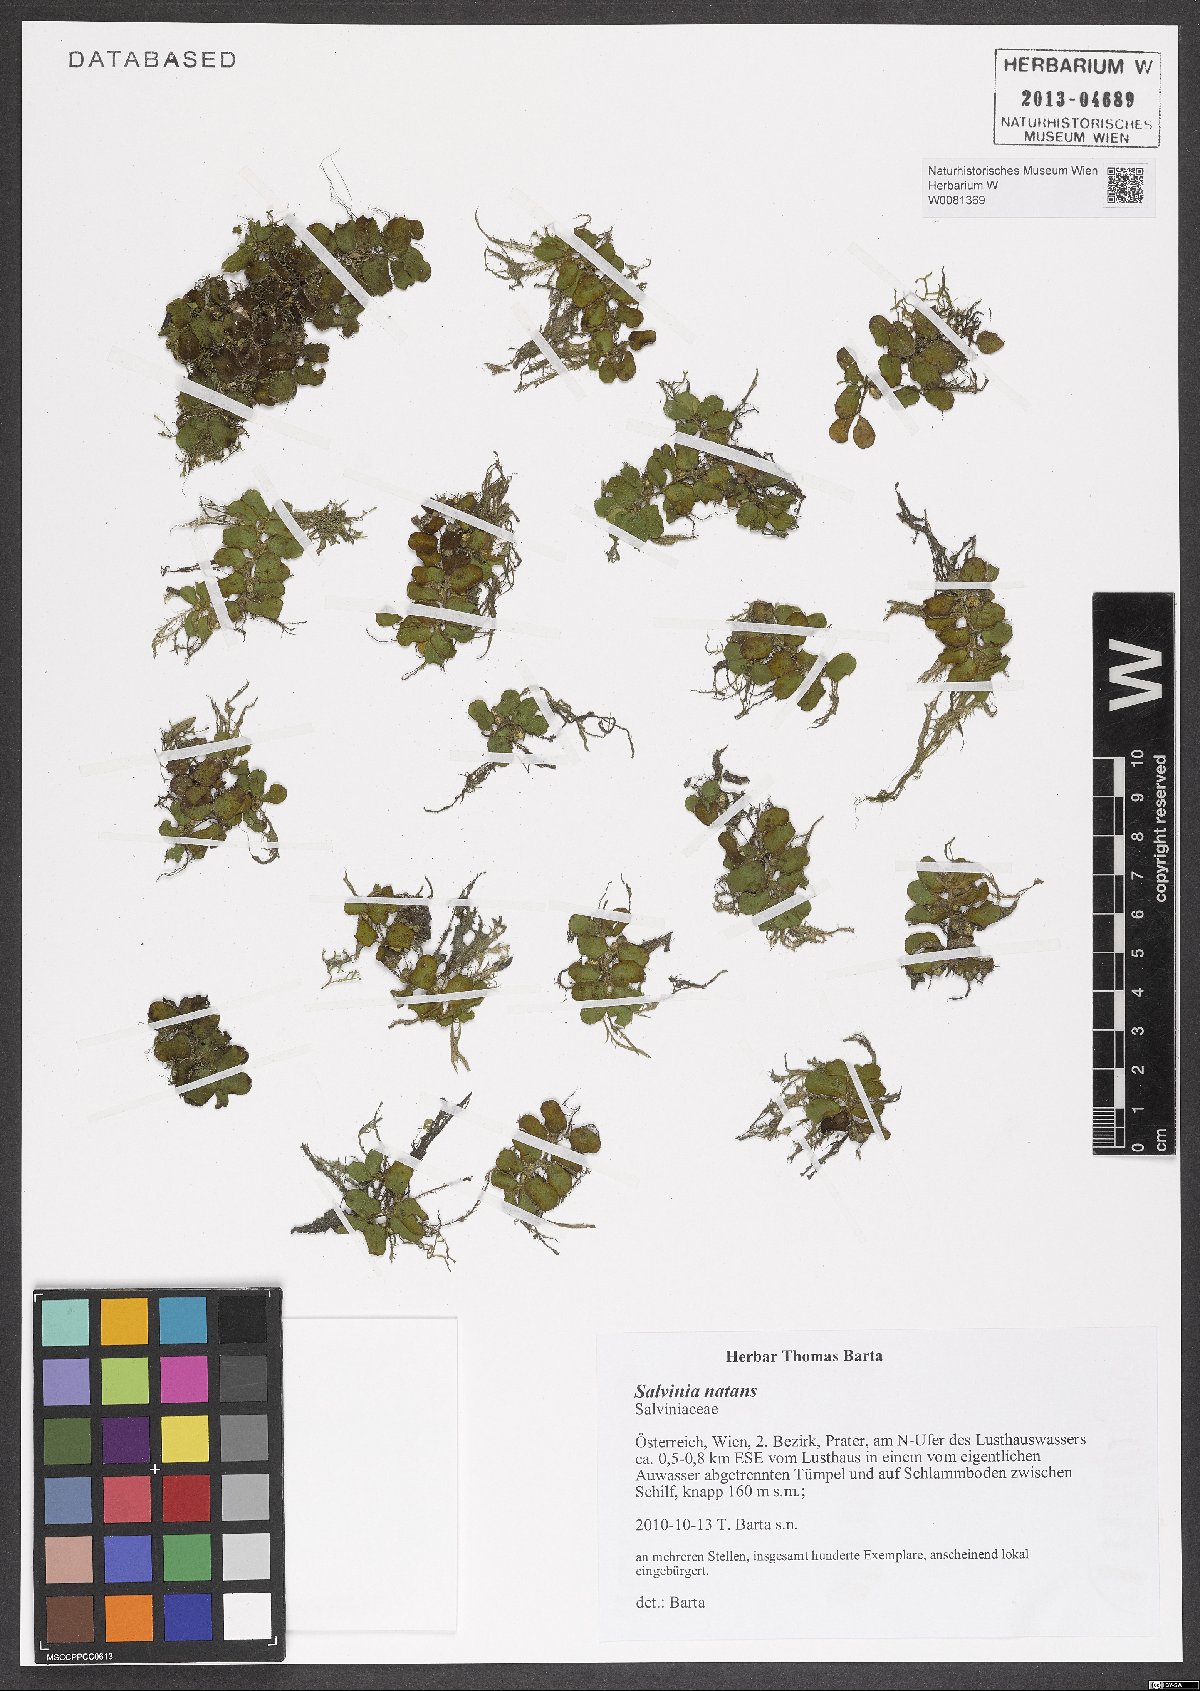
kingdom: Plantae
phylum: Tracheophyta
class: Polypodiopsida
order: Salviniales
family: Salviniaceae
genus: Salvinia
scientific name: Salvinia natans
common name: Floating fern
